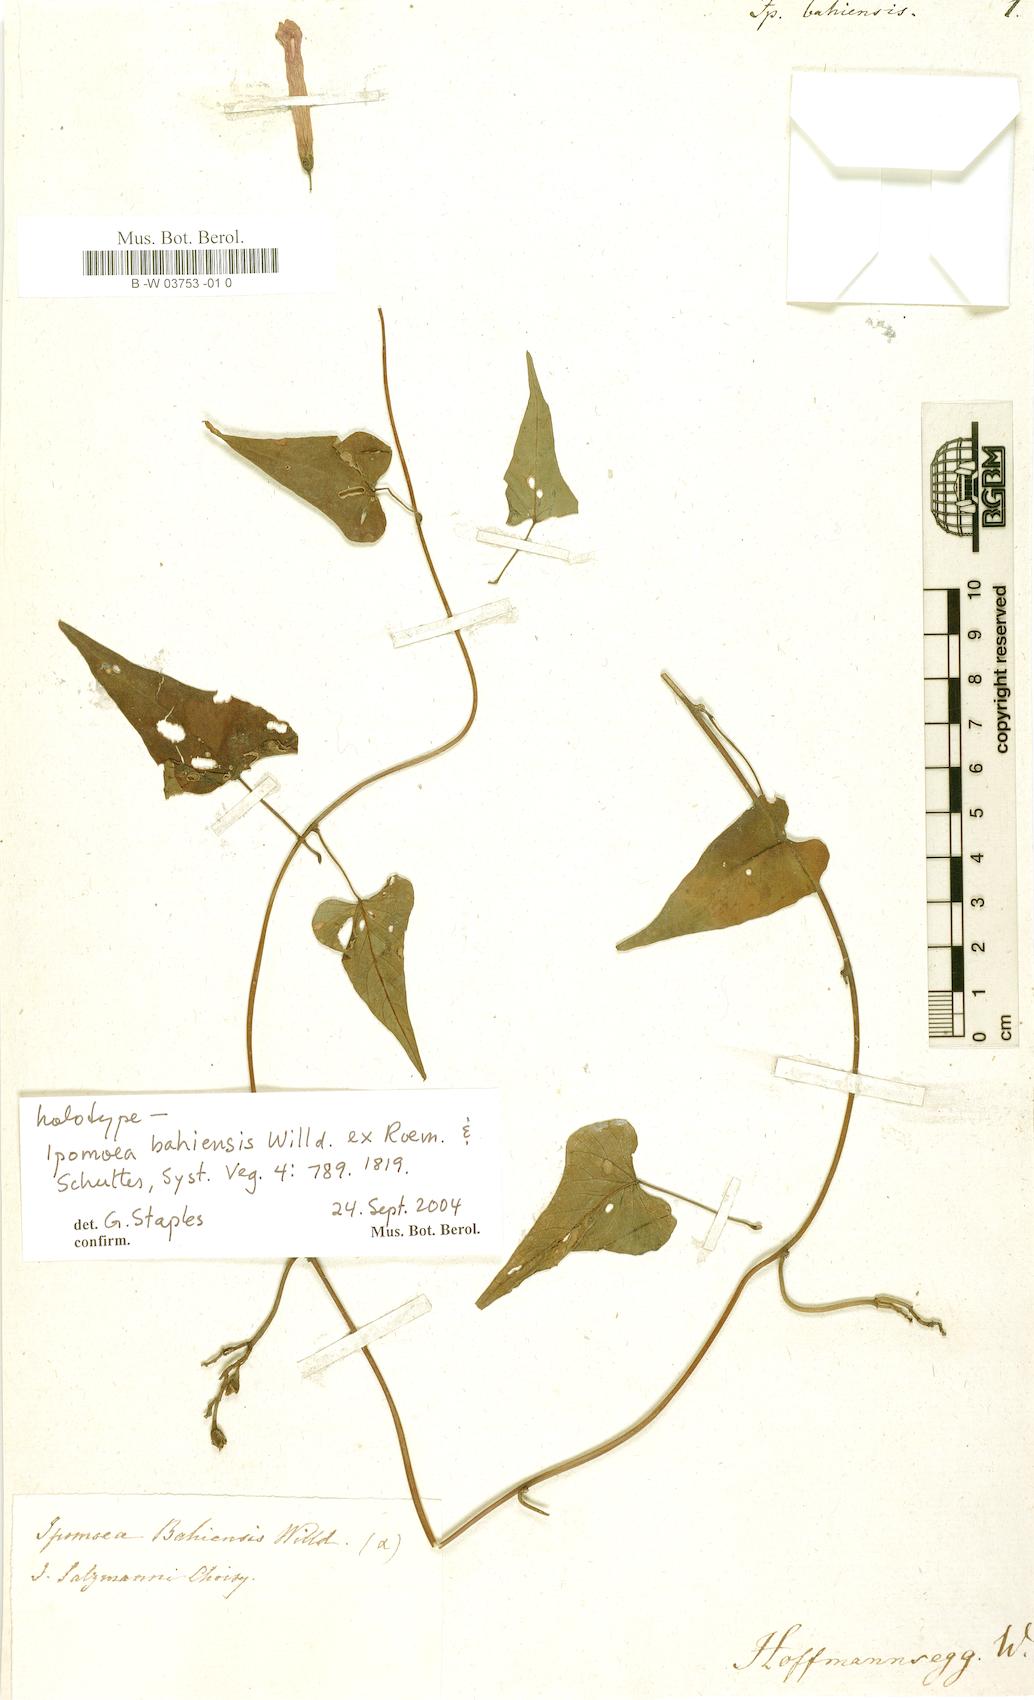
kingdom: Plantae
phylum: Tracheophyta
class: Magnoliopsida
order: Solanales
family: Convolvulaceae
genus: Ipomoea
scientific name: Ipomoea bahiensis
